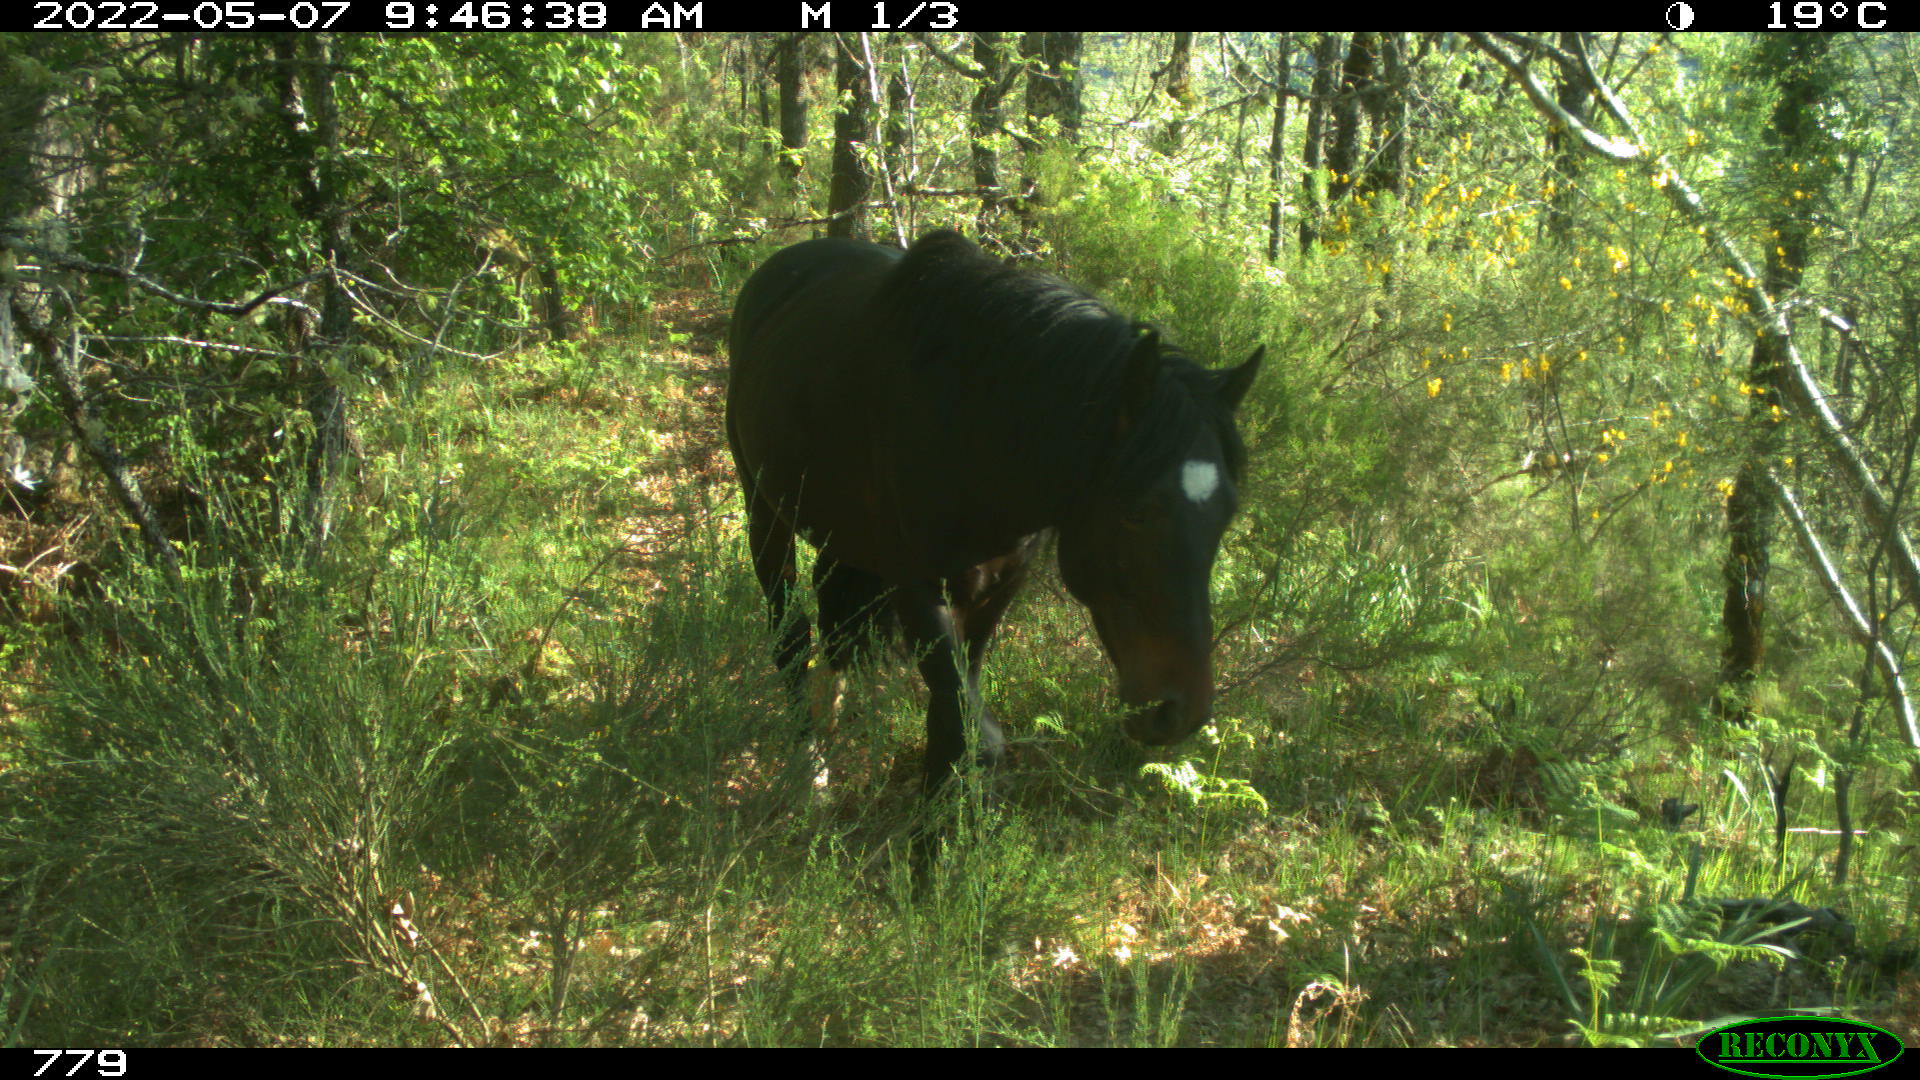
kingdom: Animalia
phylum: Chordata
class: Mammalia
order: Perissodactyla
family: Equidae
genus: Equus
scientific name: Equus caballus
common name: Horse
